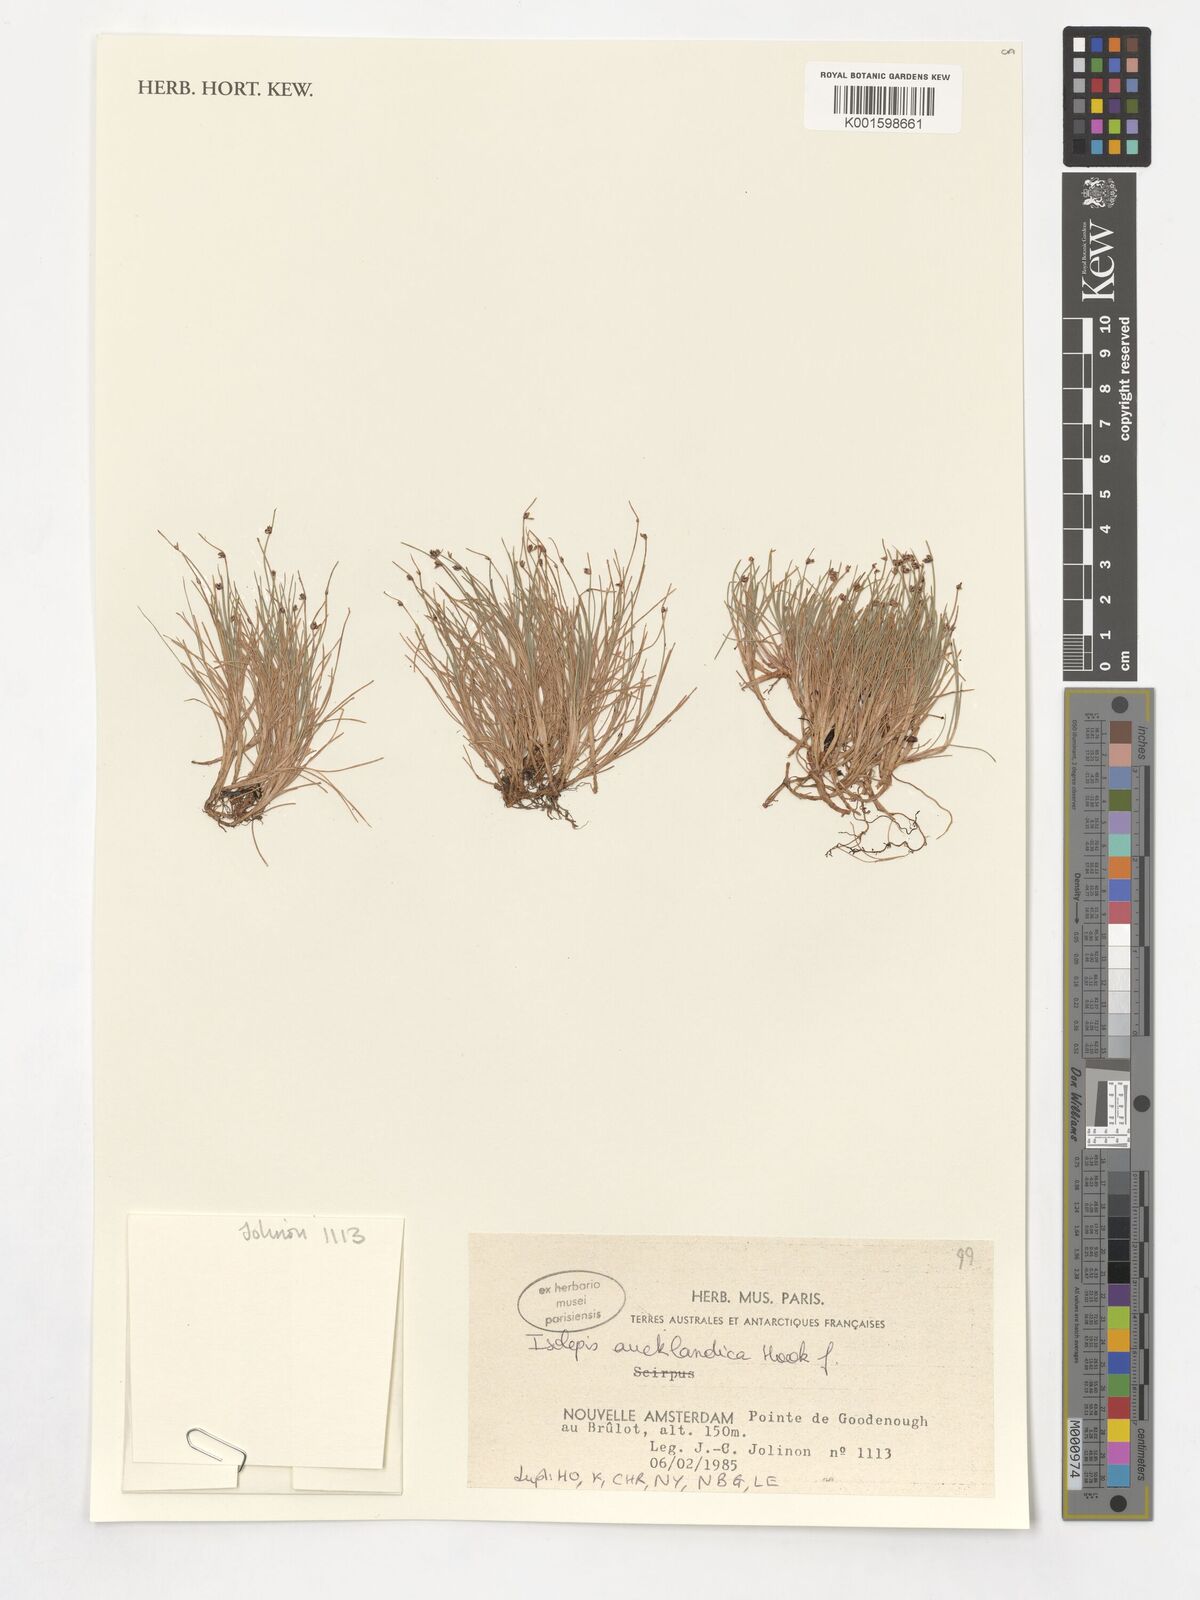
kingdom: Plantae
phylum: Tracheophyta
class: Liliopsida
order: Poales
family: Cyperaceae
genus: Isolepis
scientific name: Isolepis aucklandica
